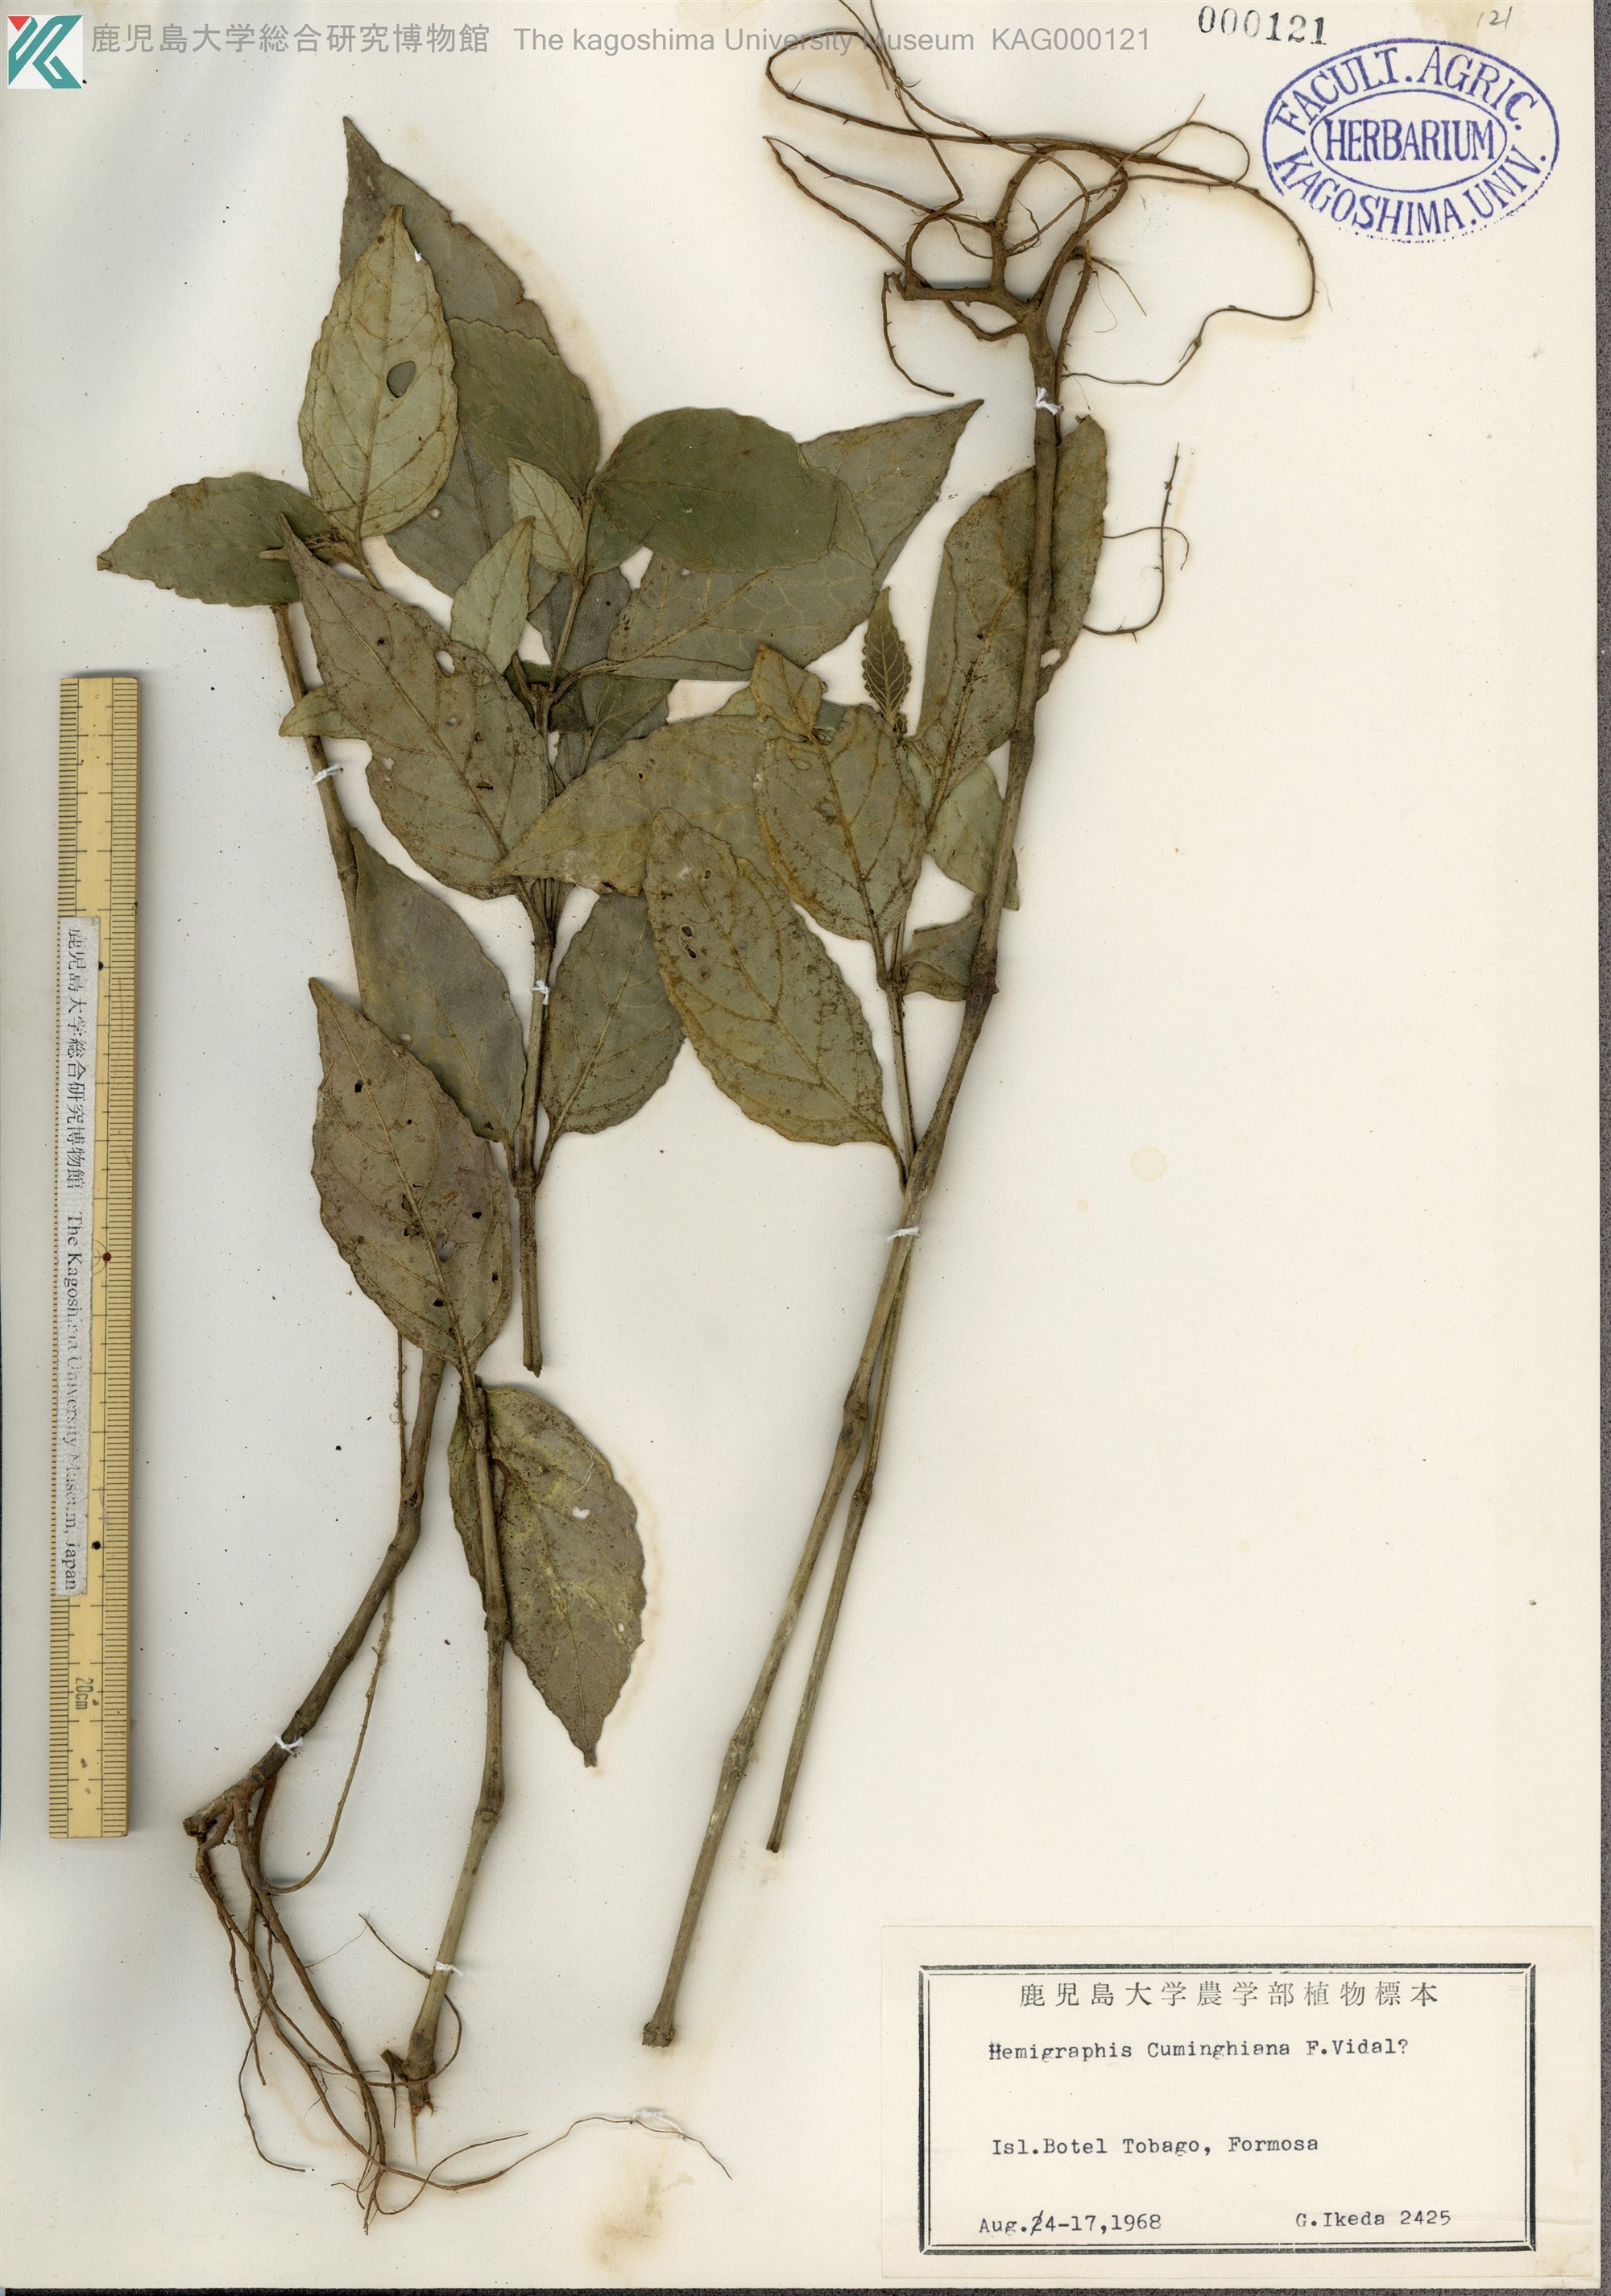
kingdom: Plantae
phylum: Tracheophyta
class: Magnoliopsida
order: Lamiales
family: Acanthaceae
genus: Strobilanthes
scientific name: Strobilanthes cumingiana
